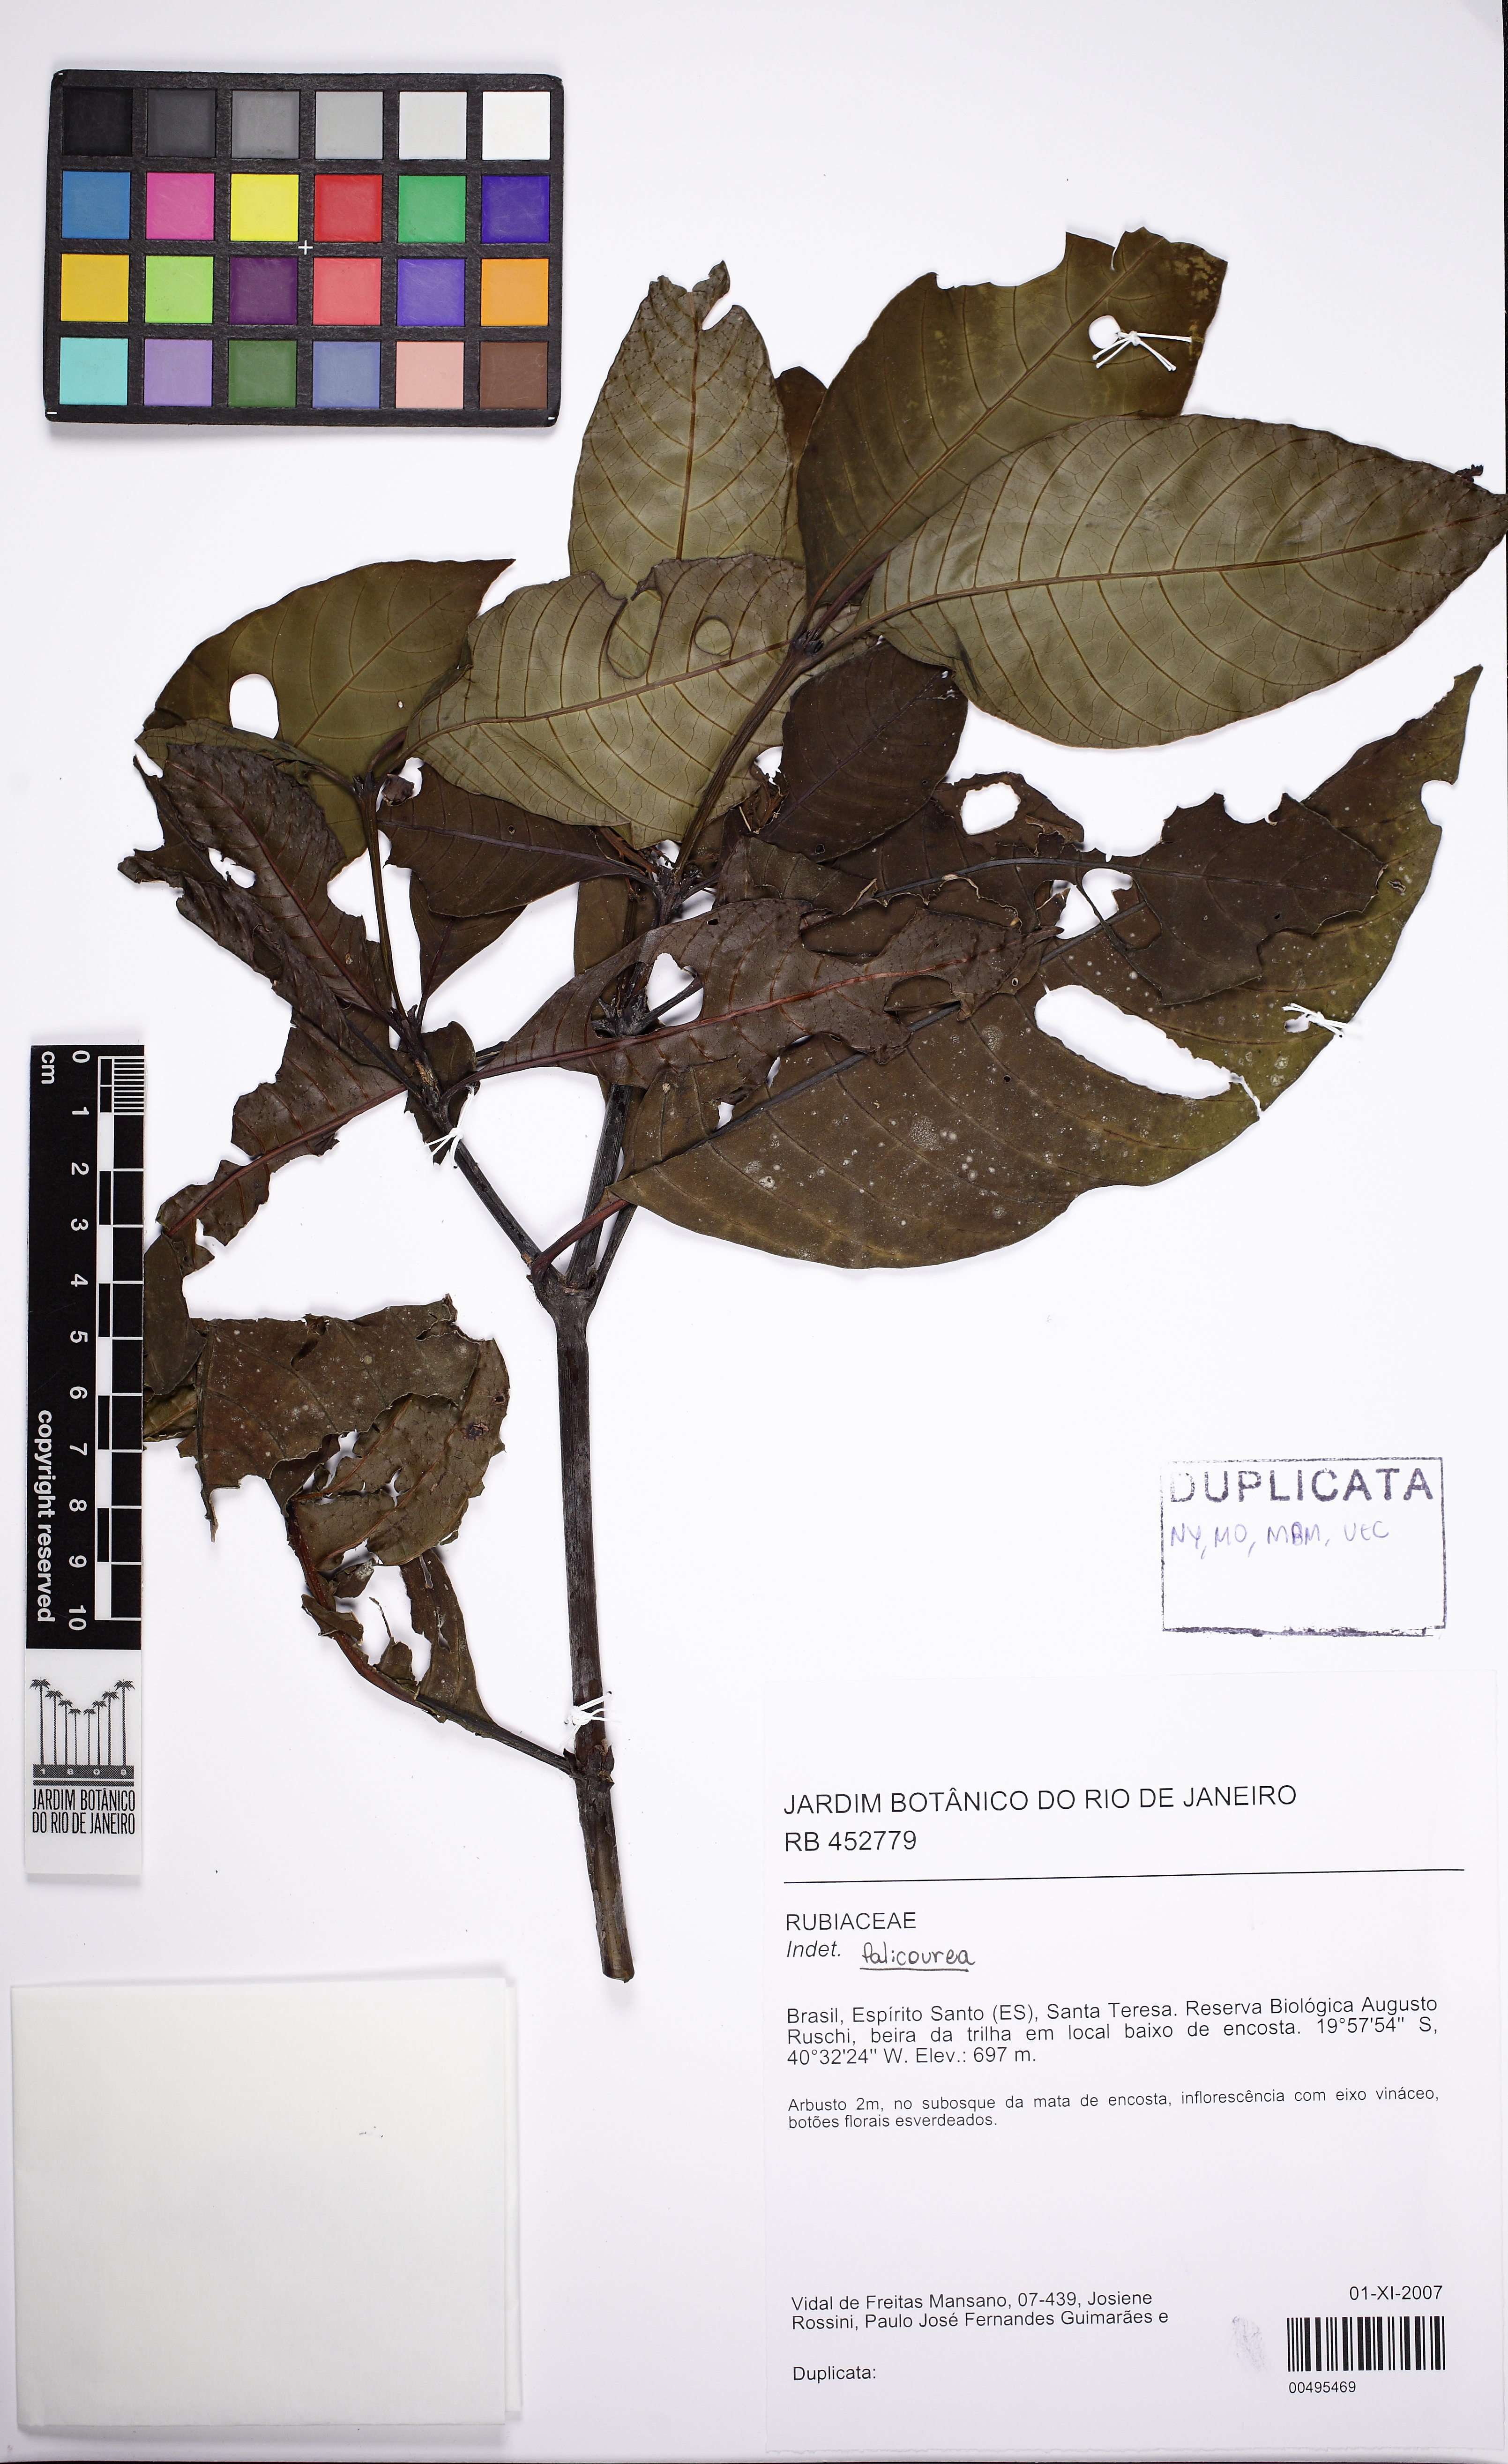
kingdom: Plantae
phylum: Tracheophyta
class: Magnoliopsida
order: Gentianales
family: Rubiaceae
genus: Palicourea
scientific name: Palicourea guianensis
